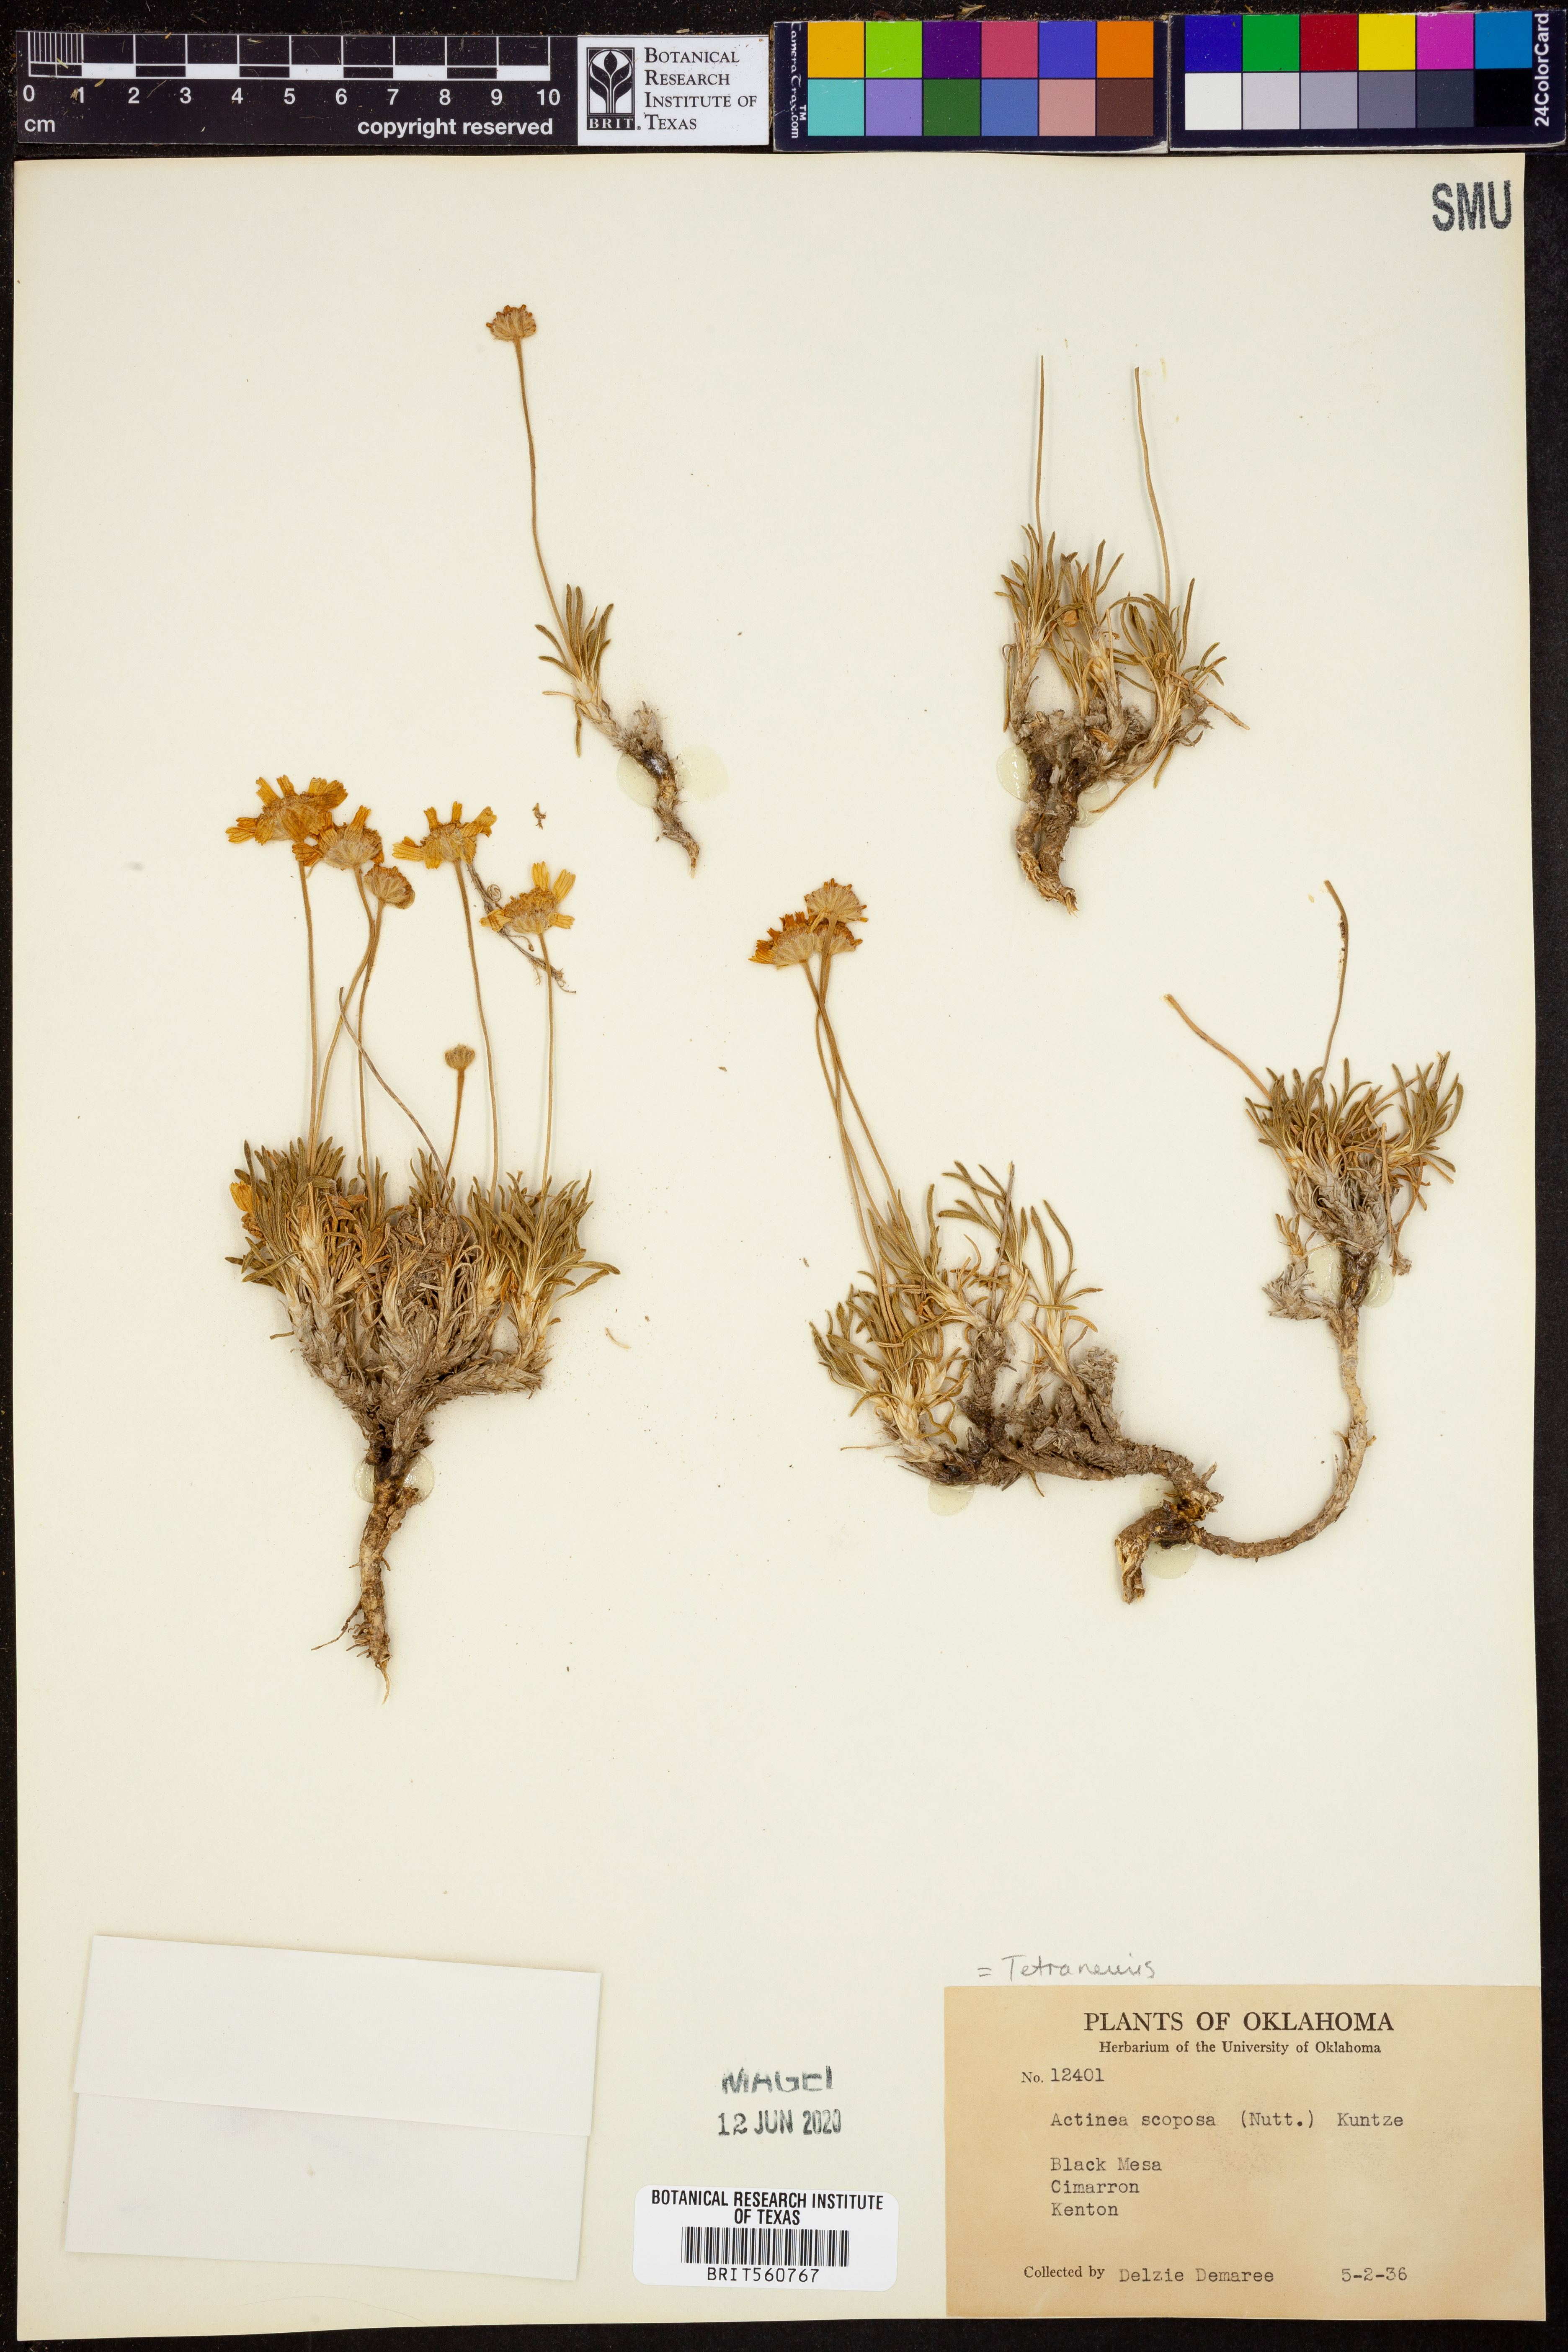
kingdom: Plantae
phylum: Tracheophyta
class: Magnoliopsida
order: Asterales
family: Asteraceae
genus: Tetraneuris
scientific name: Tetraneuris scaposa
